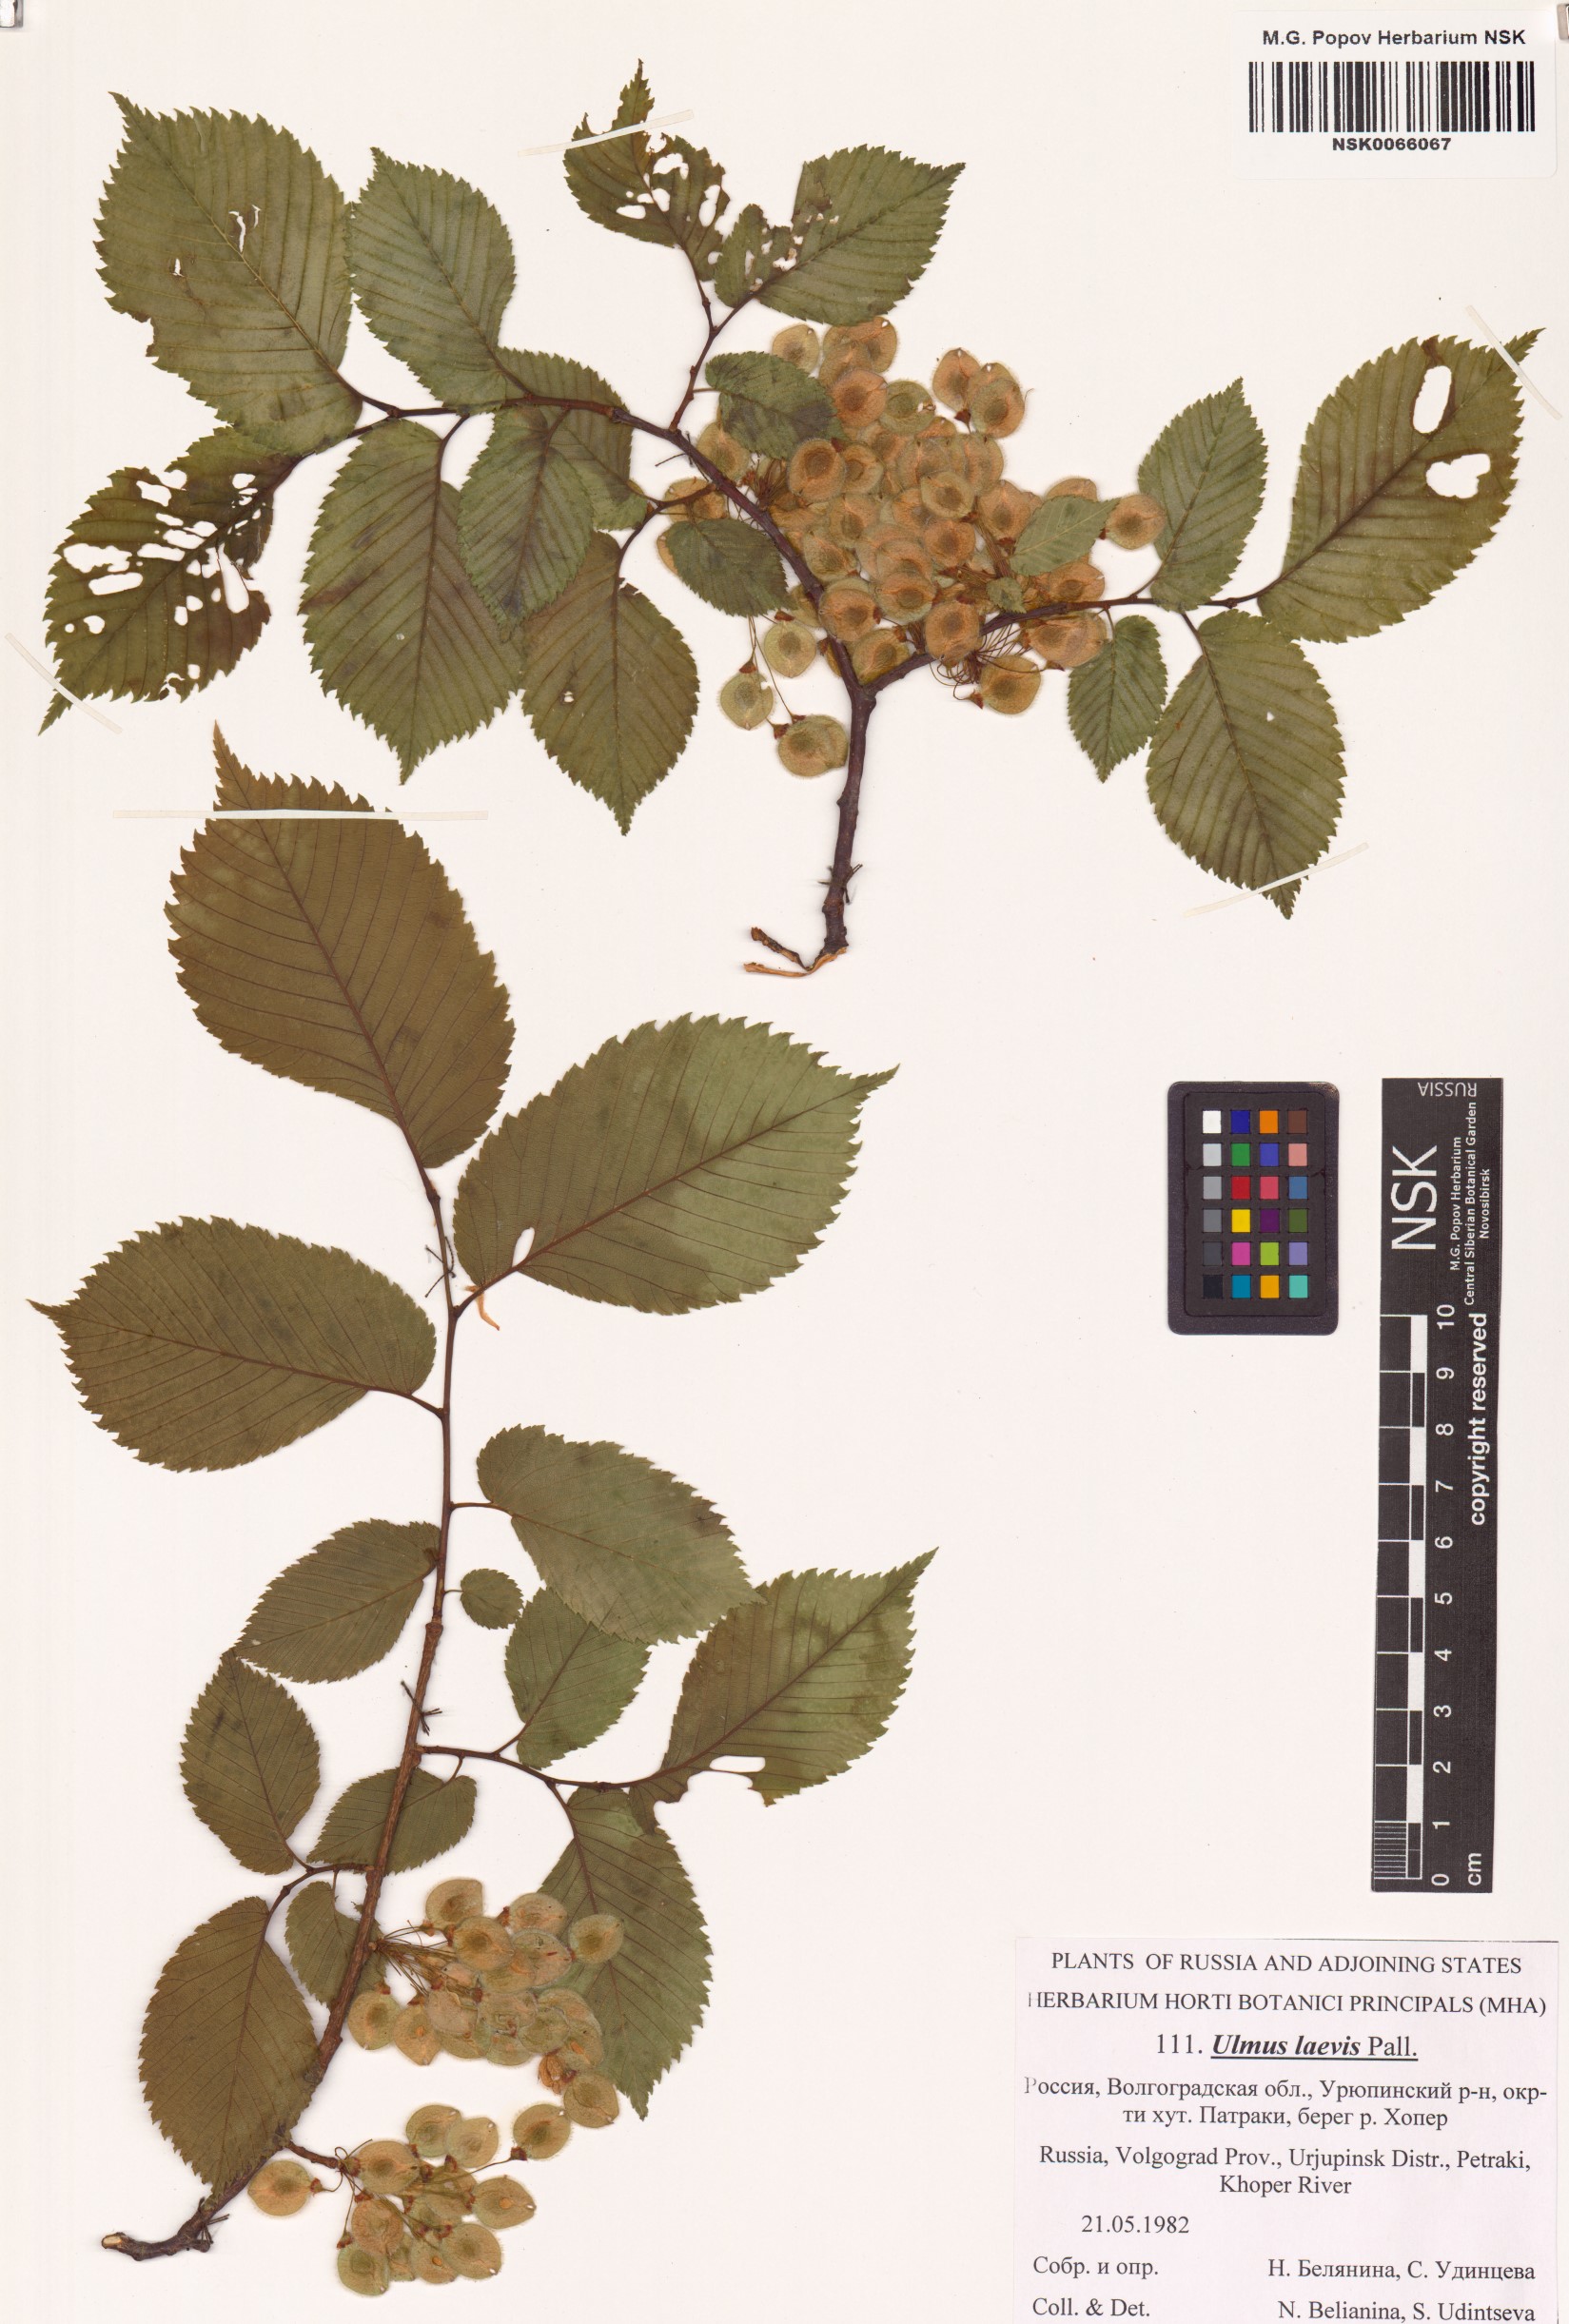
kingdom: Plantae
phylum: Tracheophyta
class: Magnoliopsida
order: Rosales
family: Ulmaceae
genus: Ulmus
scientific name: Ulmus laevis
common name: European white-elm
